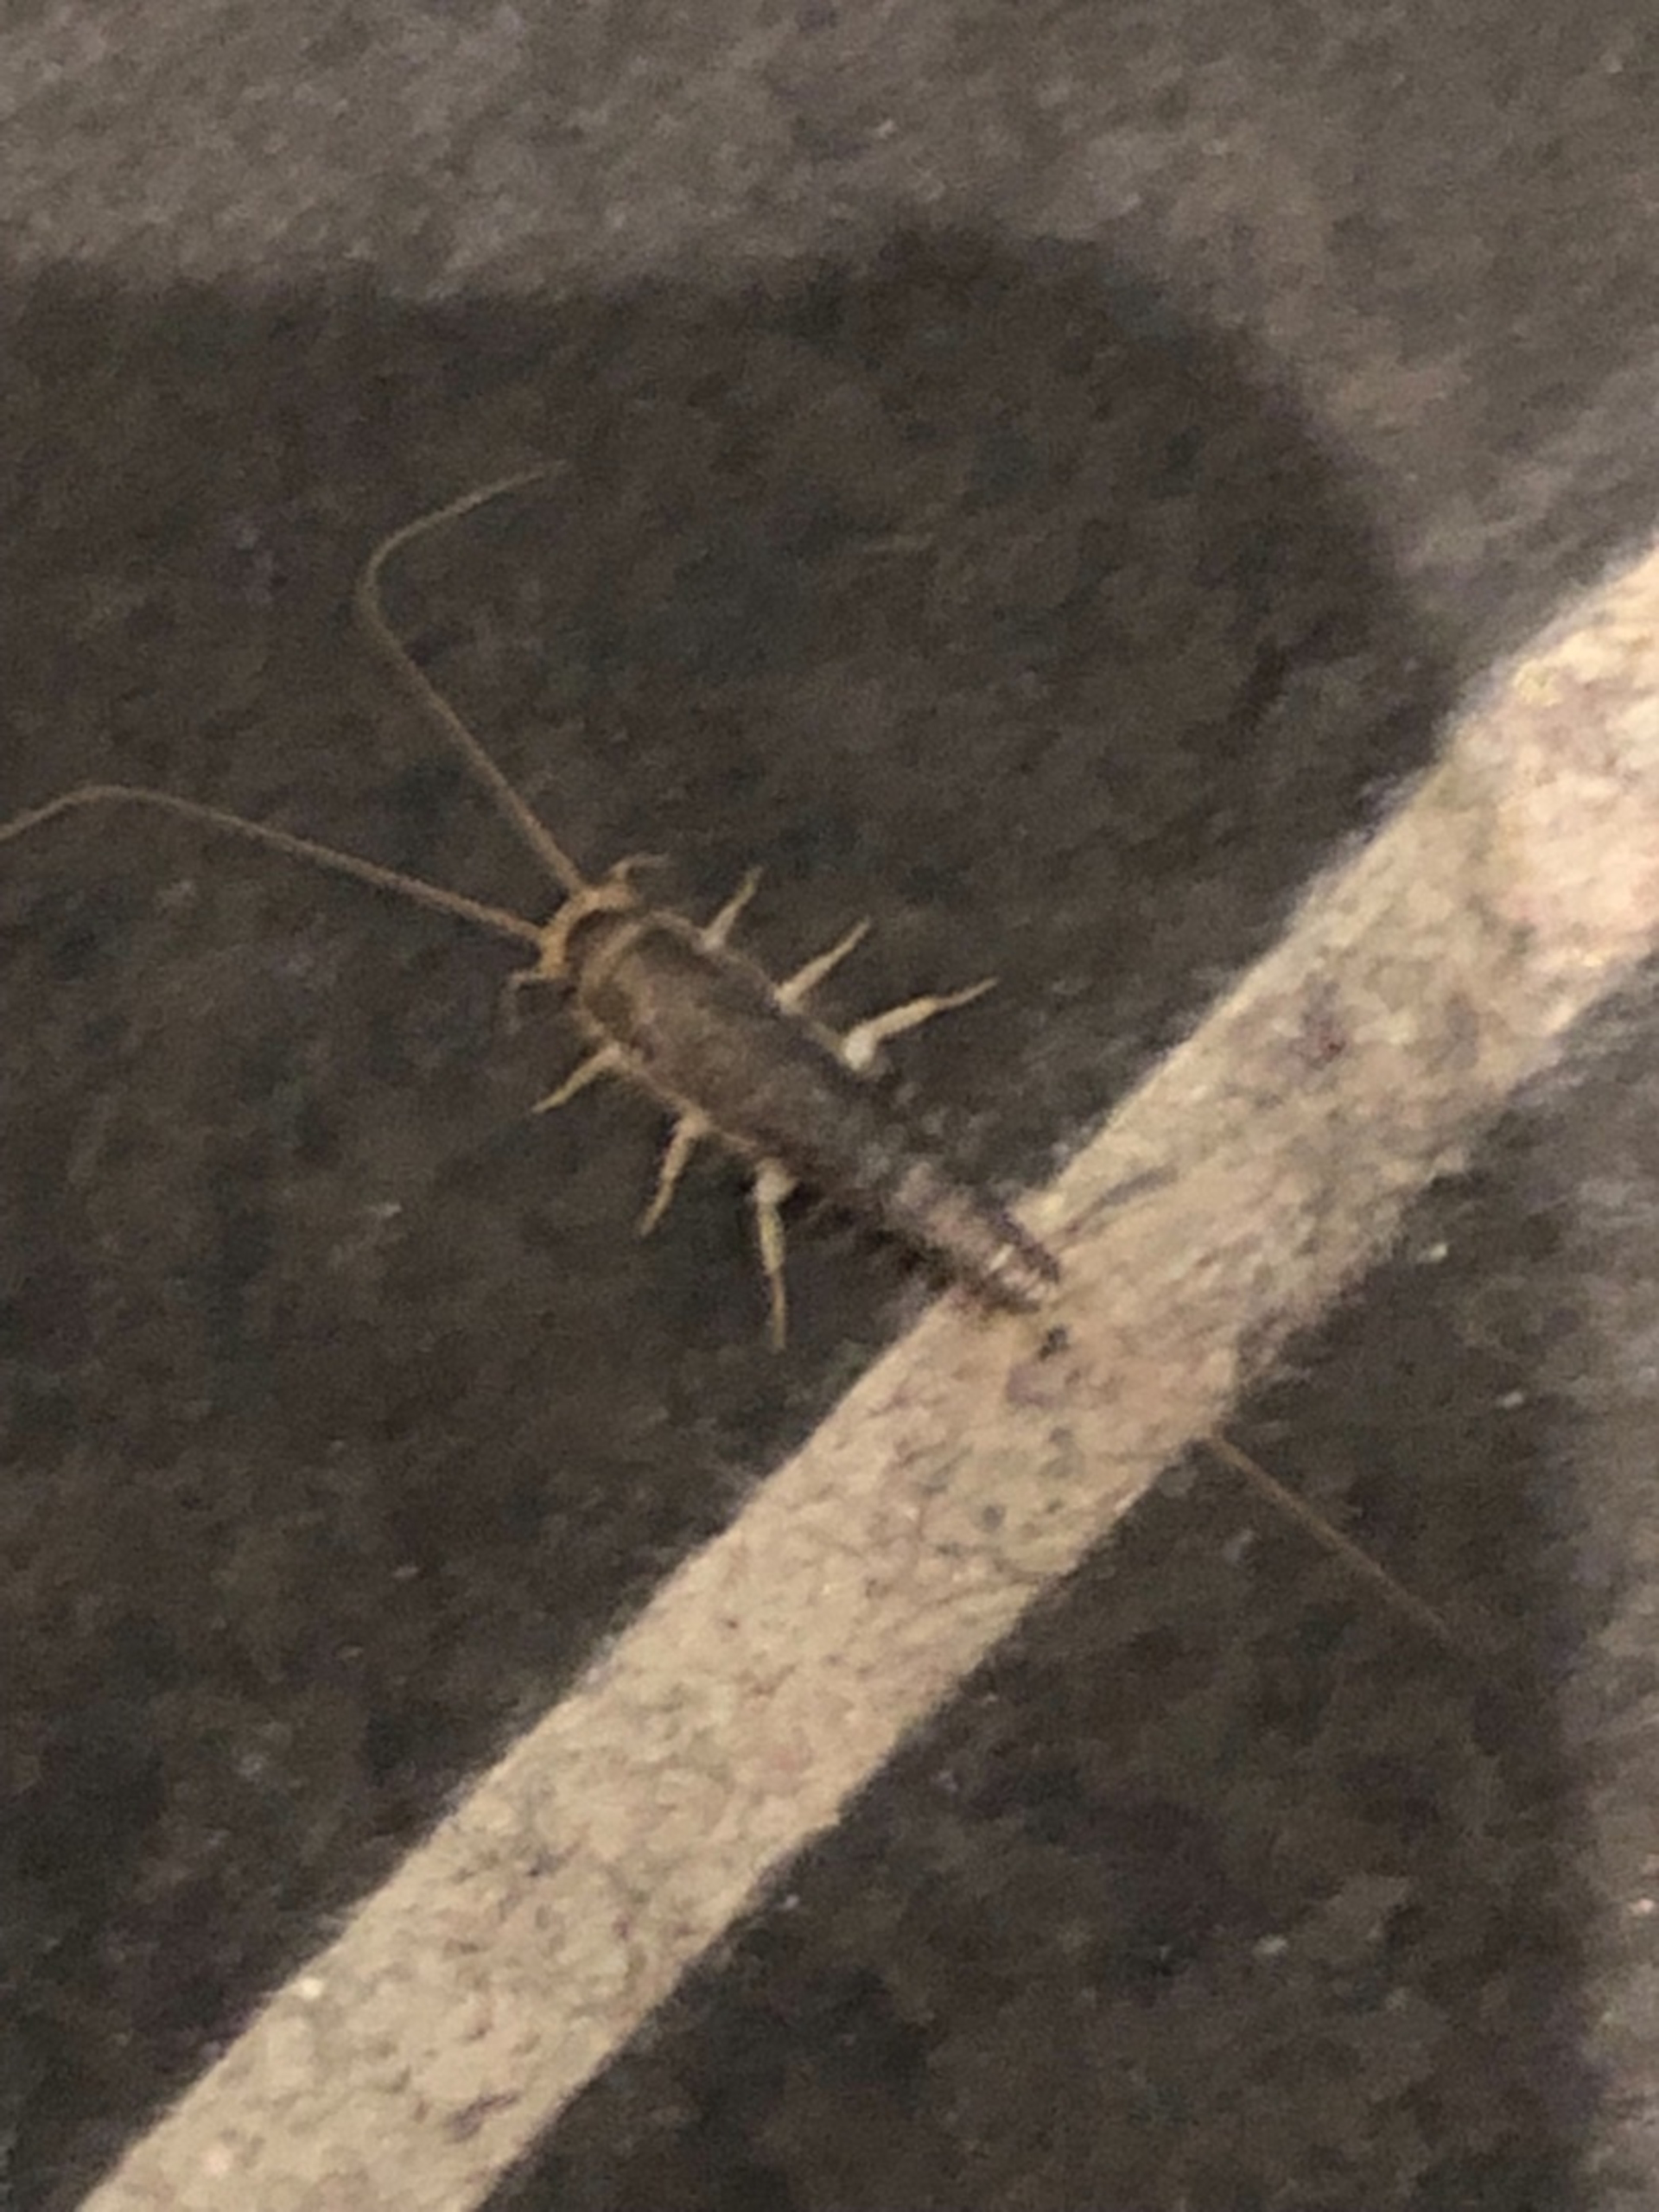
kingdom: Animalia
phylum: Arthropoda
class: Insecta
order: Zygentoma
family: Lepismatidae
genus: Ctenolepisma
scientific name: Ctenolepisma longicaudatum
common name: Skægget sølvkræ
